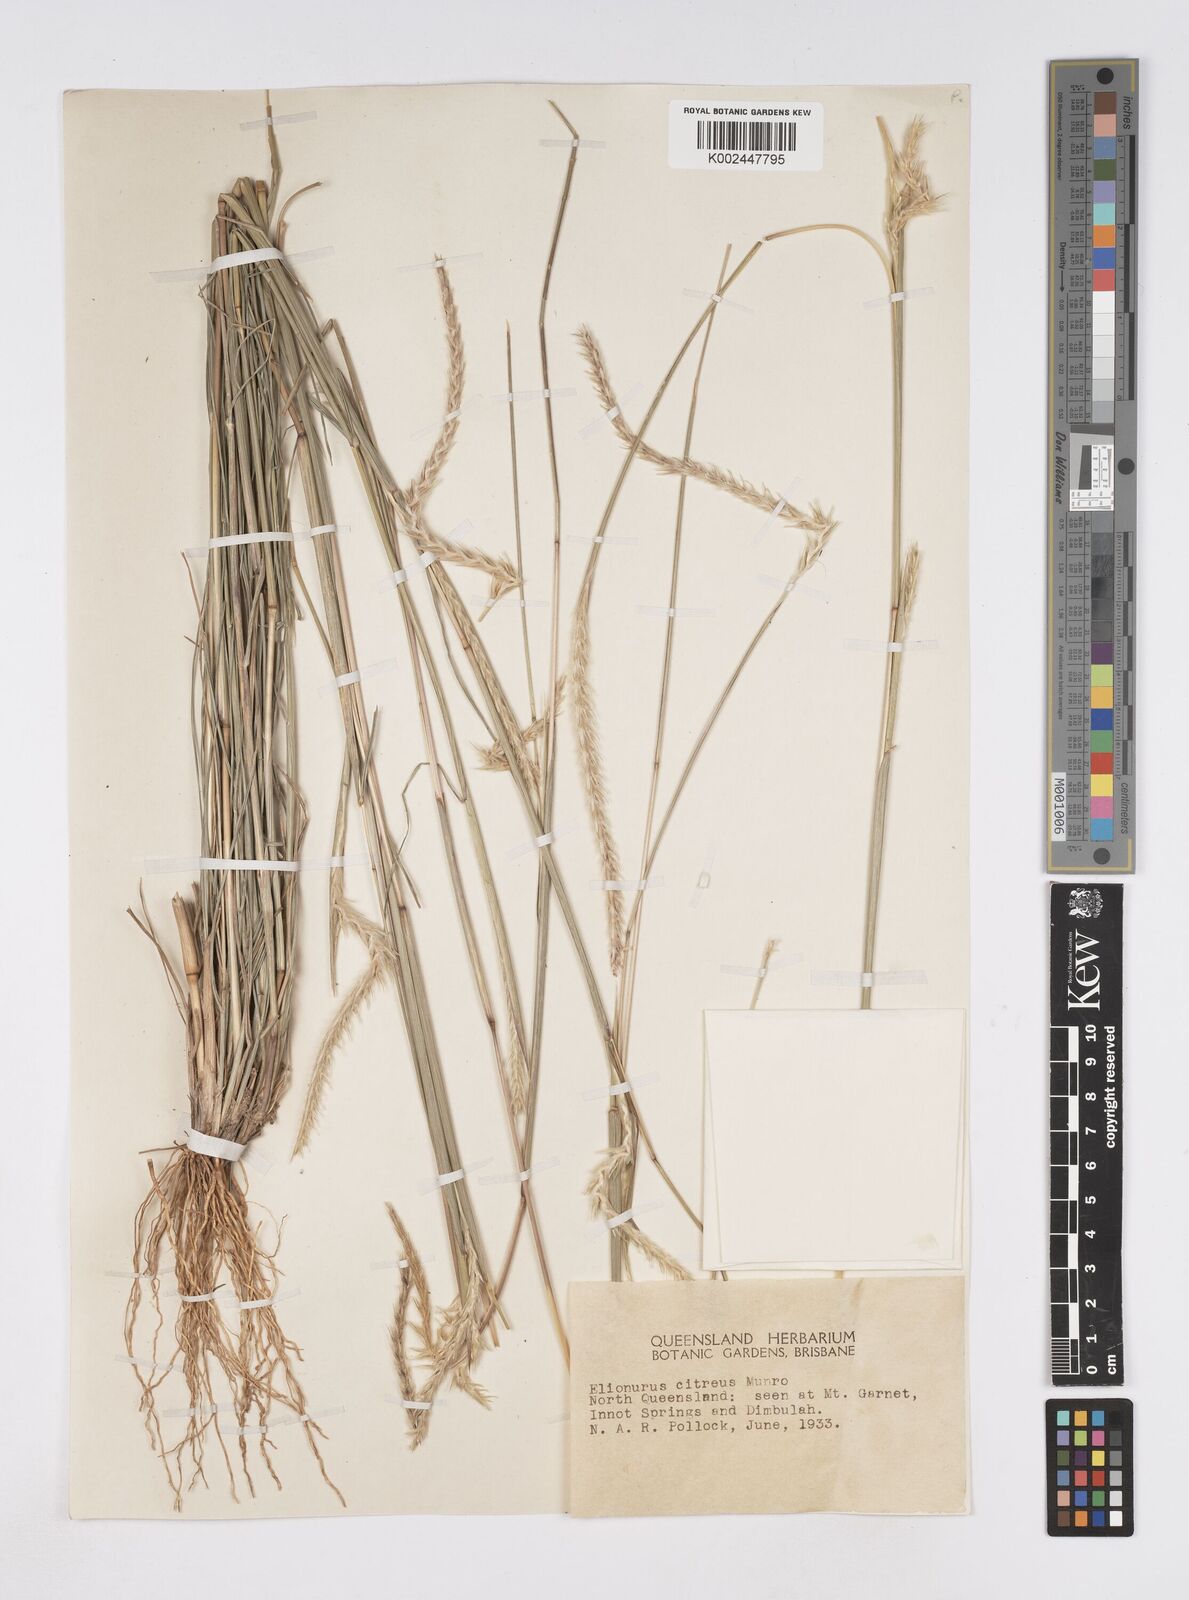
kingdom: Plantae
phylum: Tracheophyta
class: Liliopsida
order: Poales
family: Poaceae
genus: Elionurus
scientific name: Elionurus citreus
